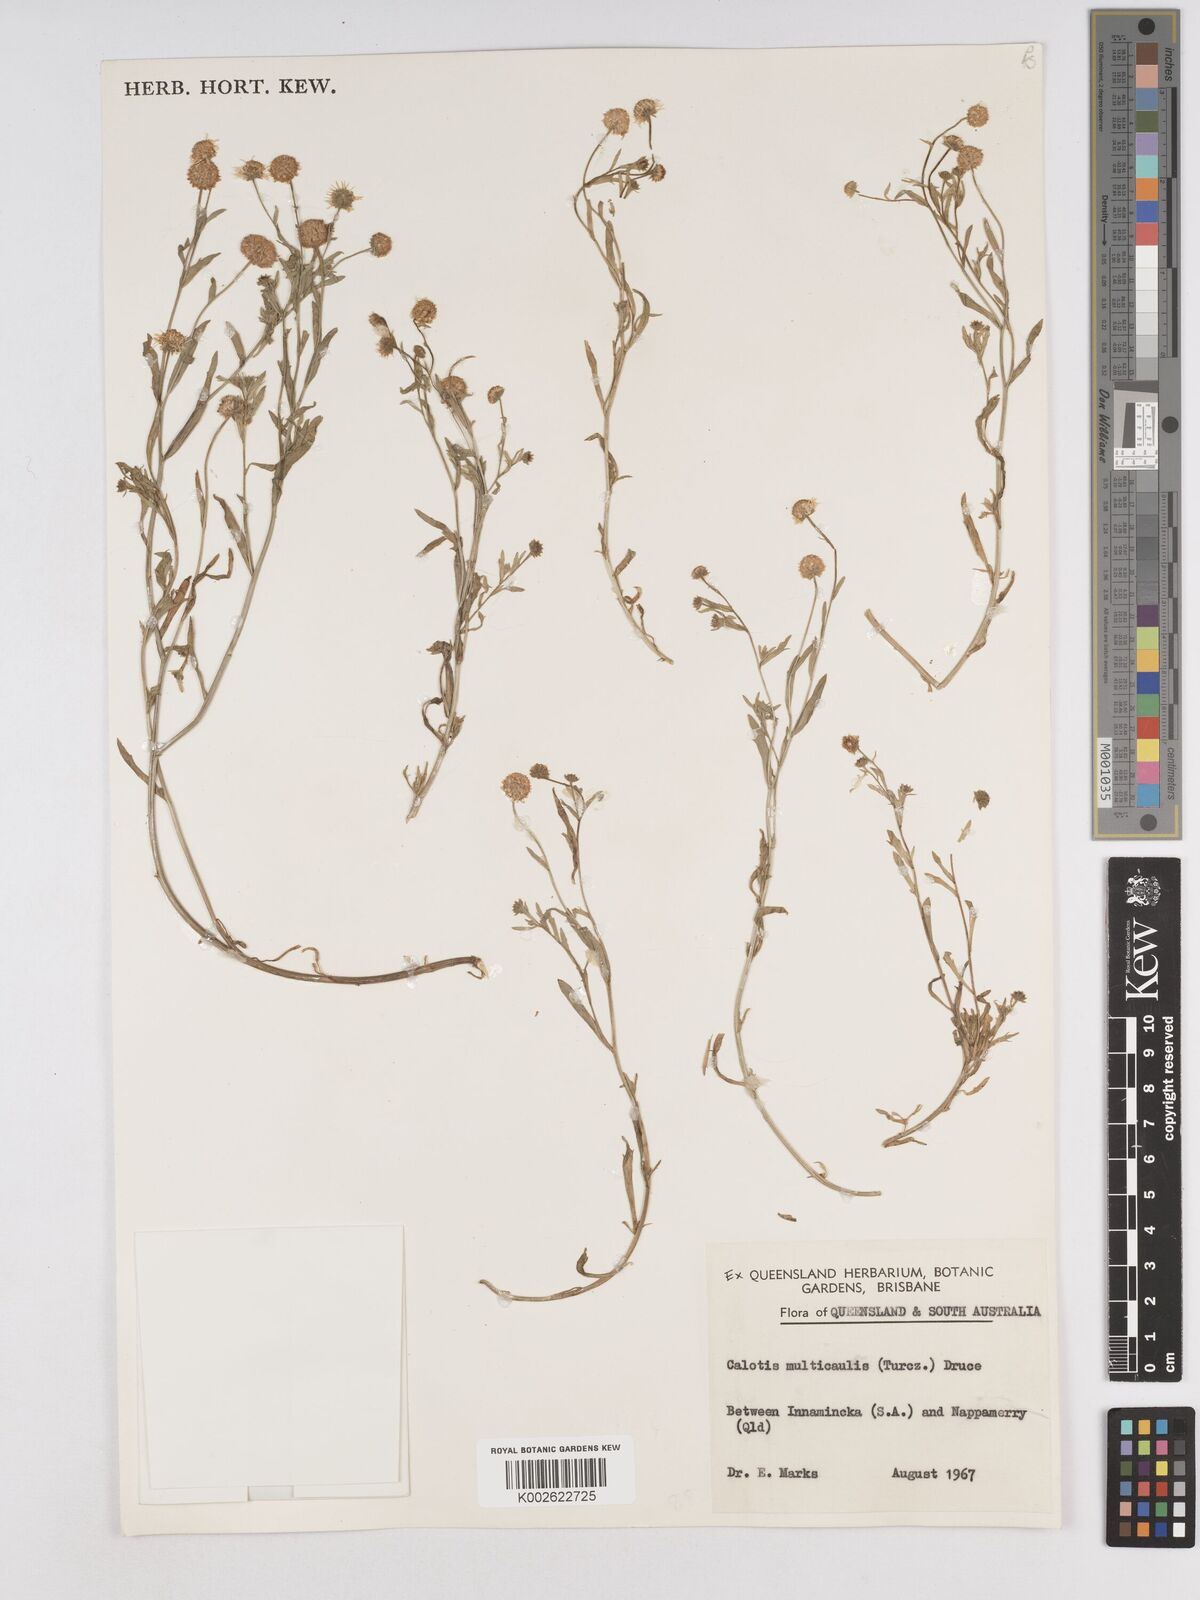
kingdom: Plantae
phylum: Tracheophyta
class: Magnoliopsida
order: Asterales
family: Asteraceae
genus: Calotis
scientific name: Calotis multicaulis
